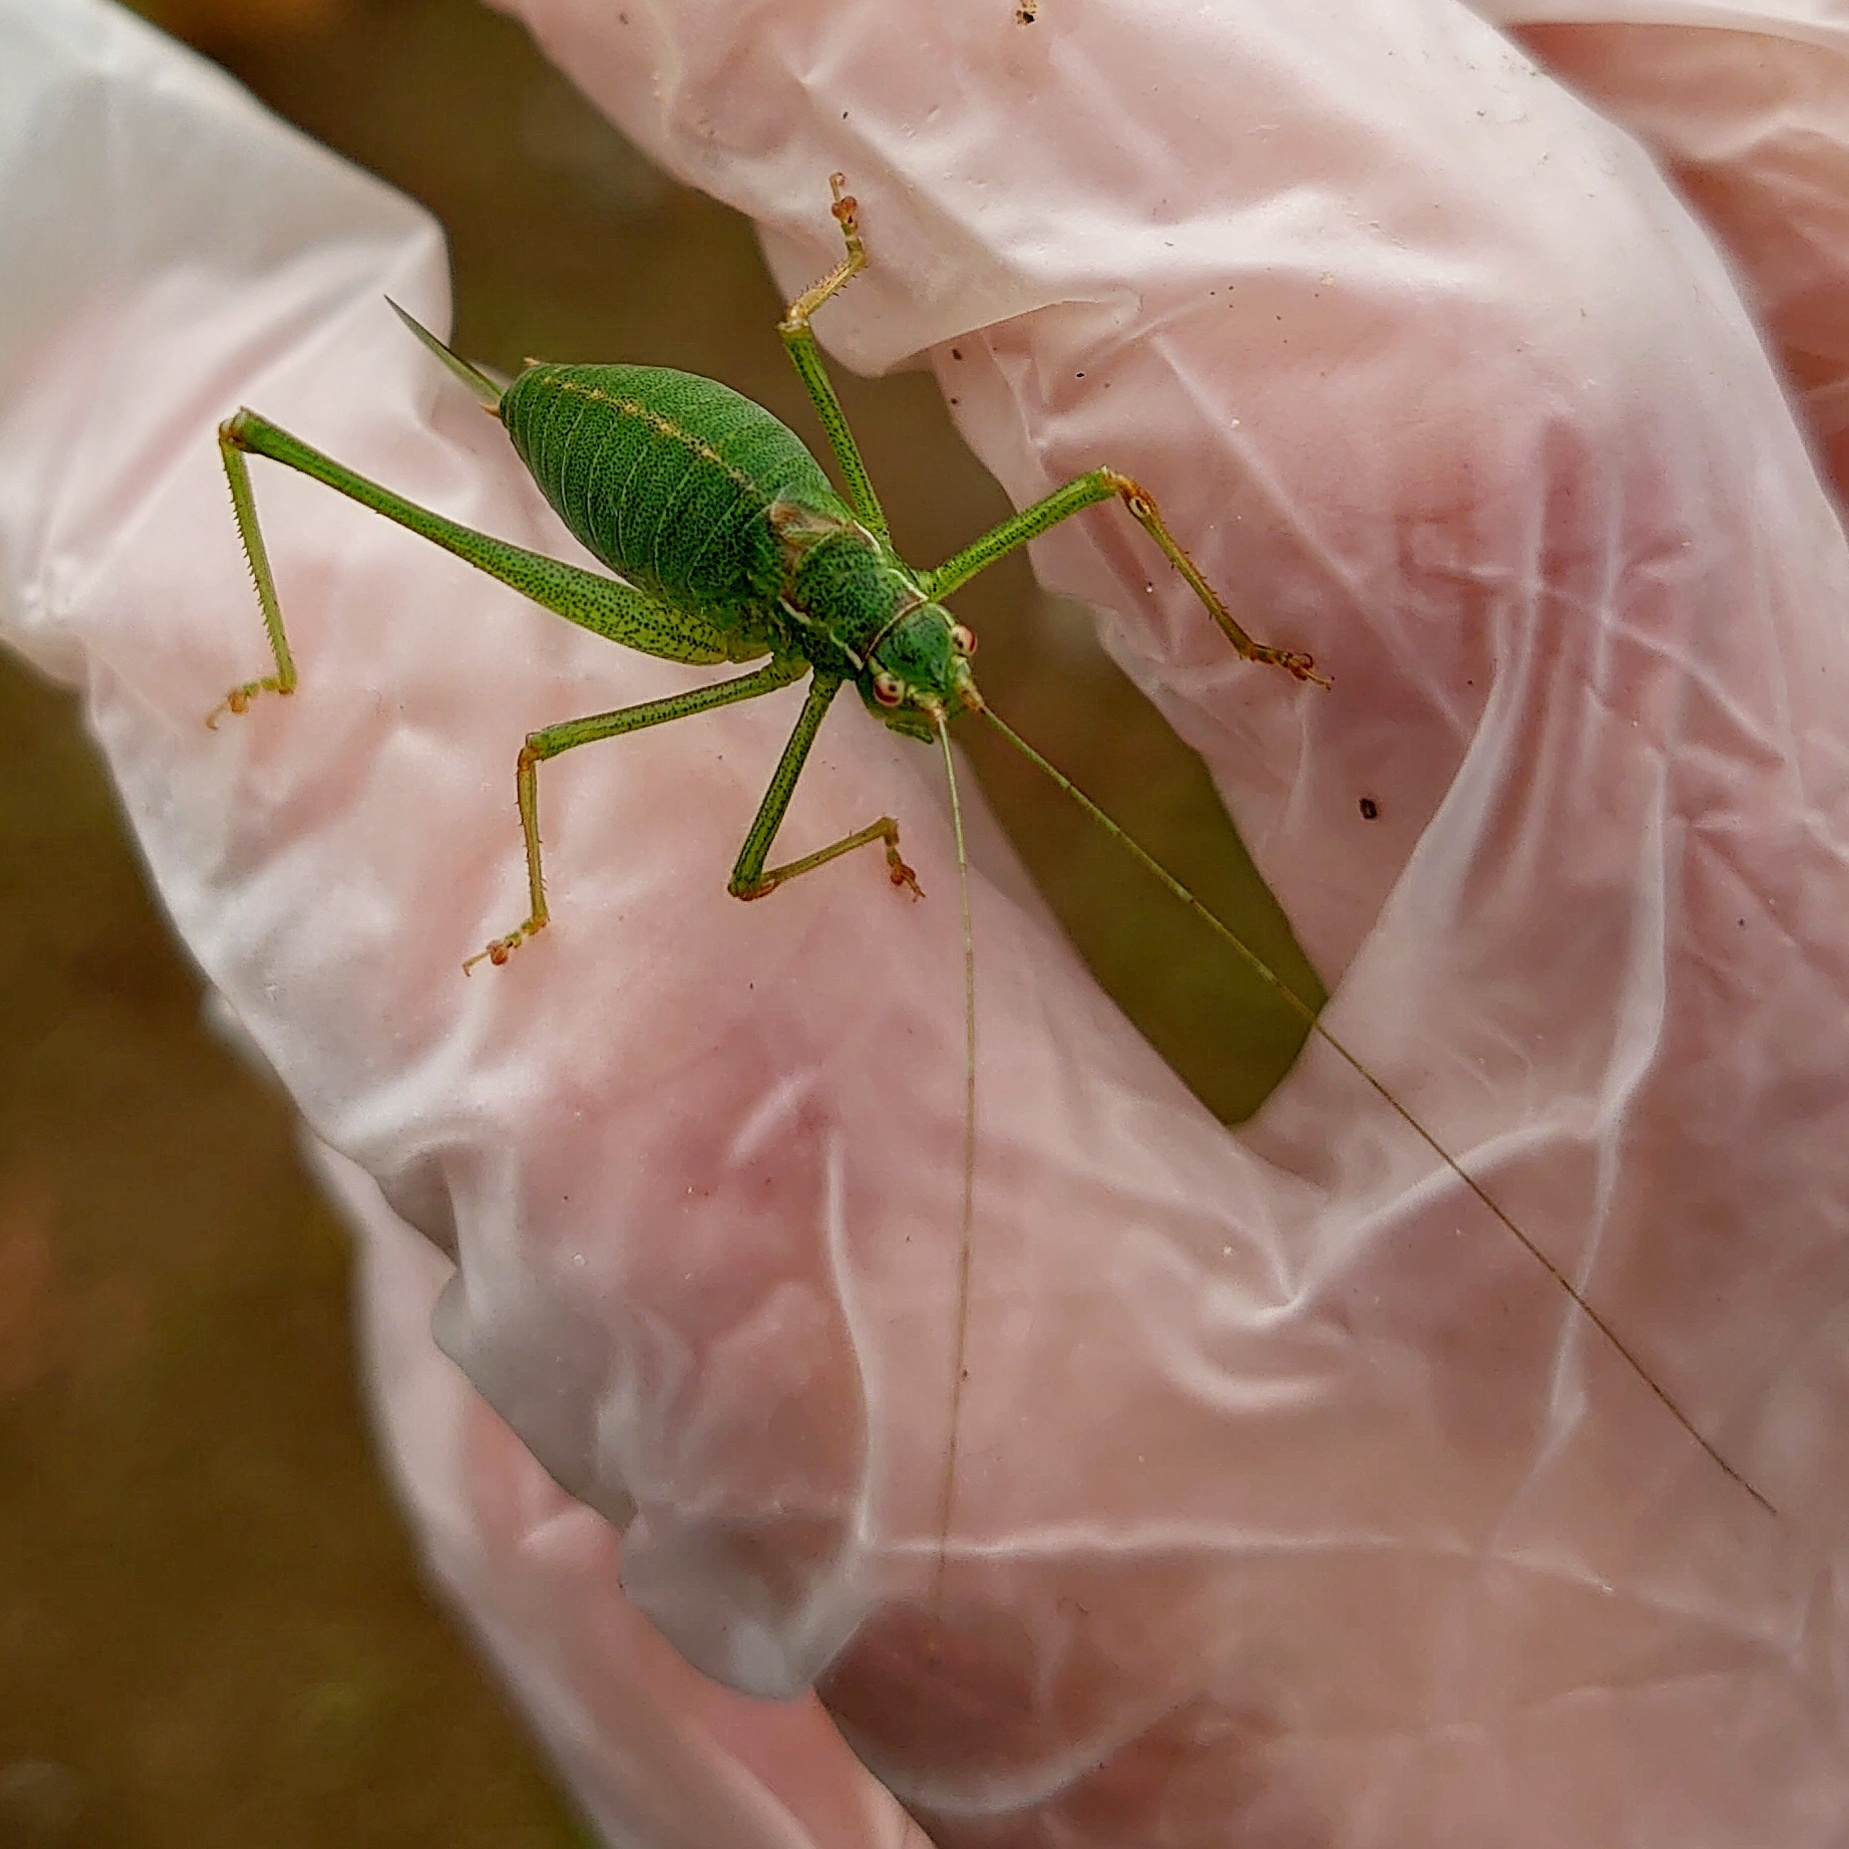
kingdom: Animalia
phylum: Arthropoda
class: Insecta
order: Orthoptera
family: Tettigoniidae
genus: Leptophyes
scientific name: Leptophyes punctatissima
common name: Speckled bush-cricket
